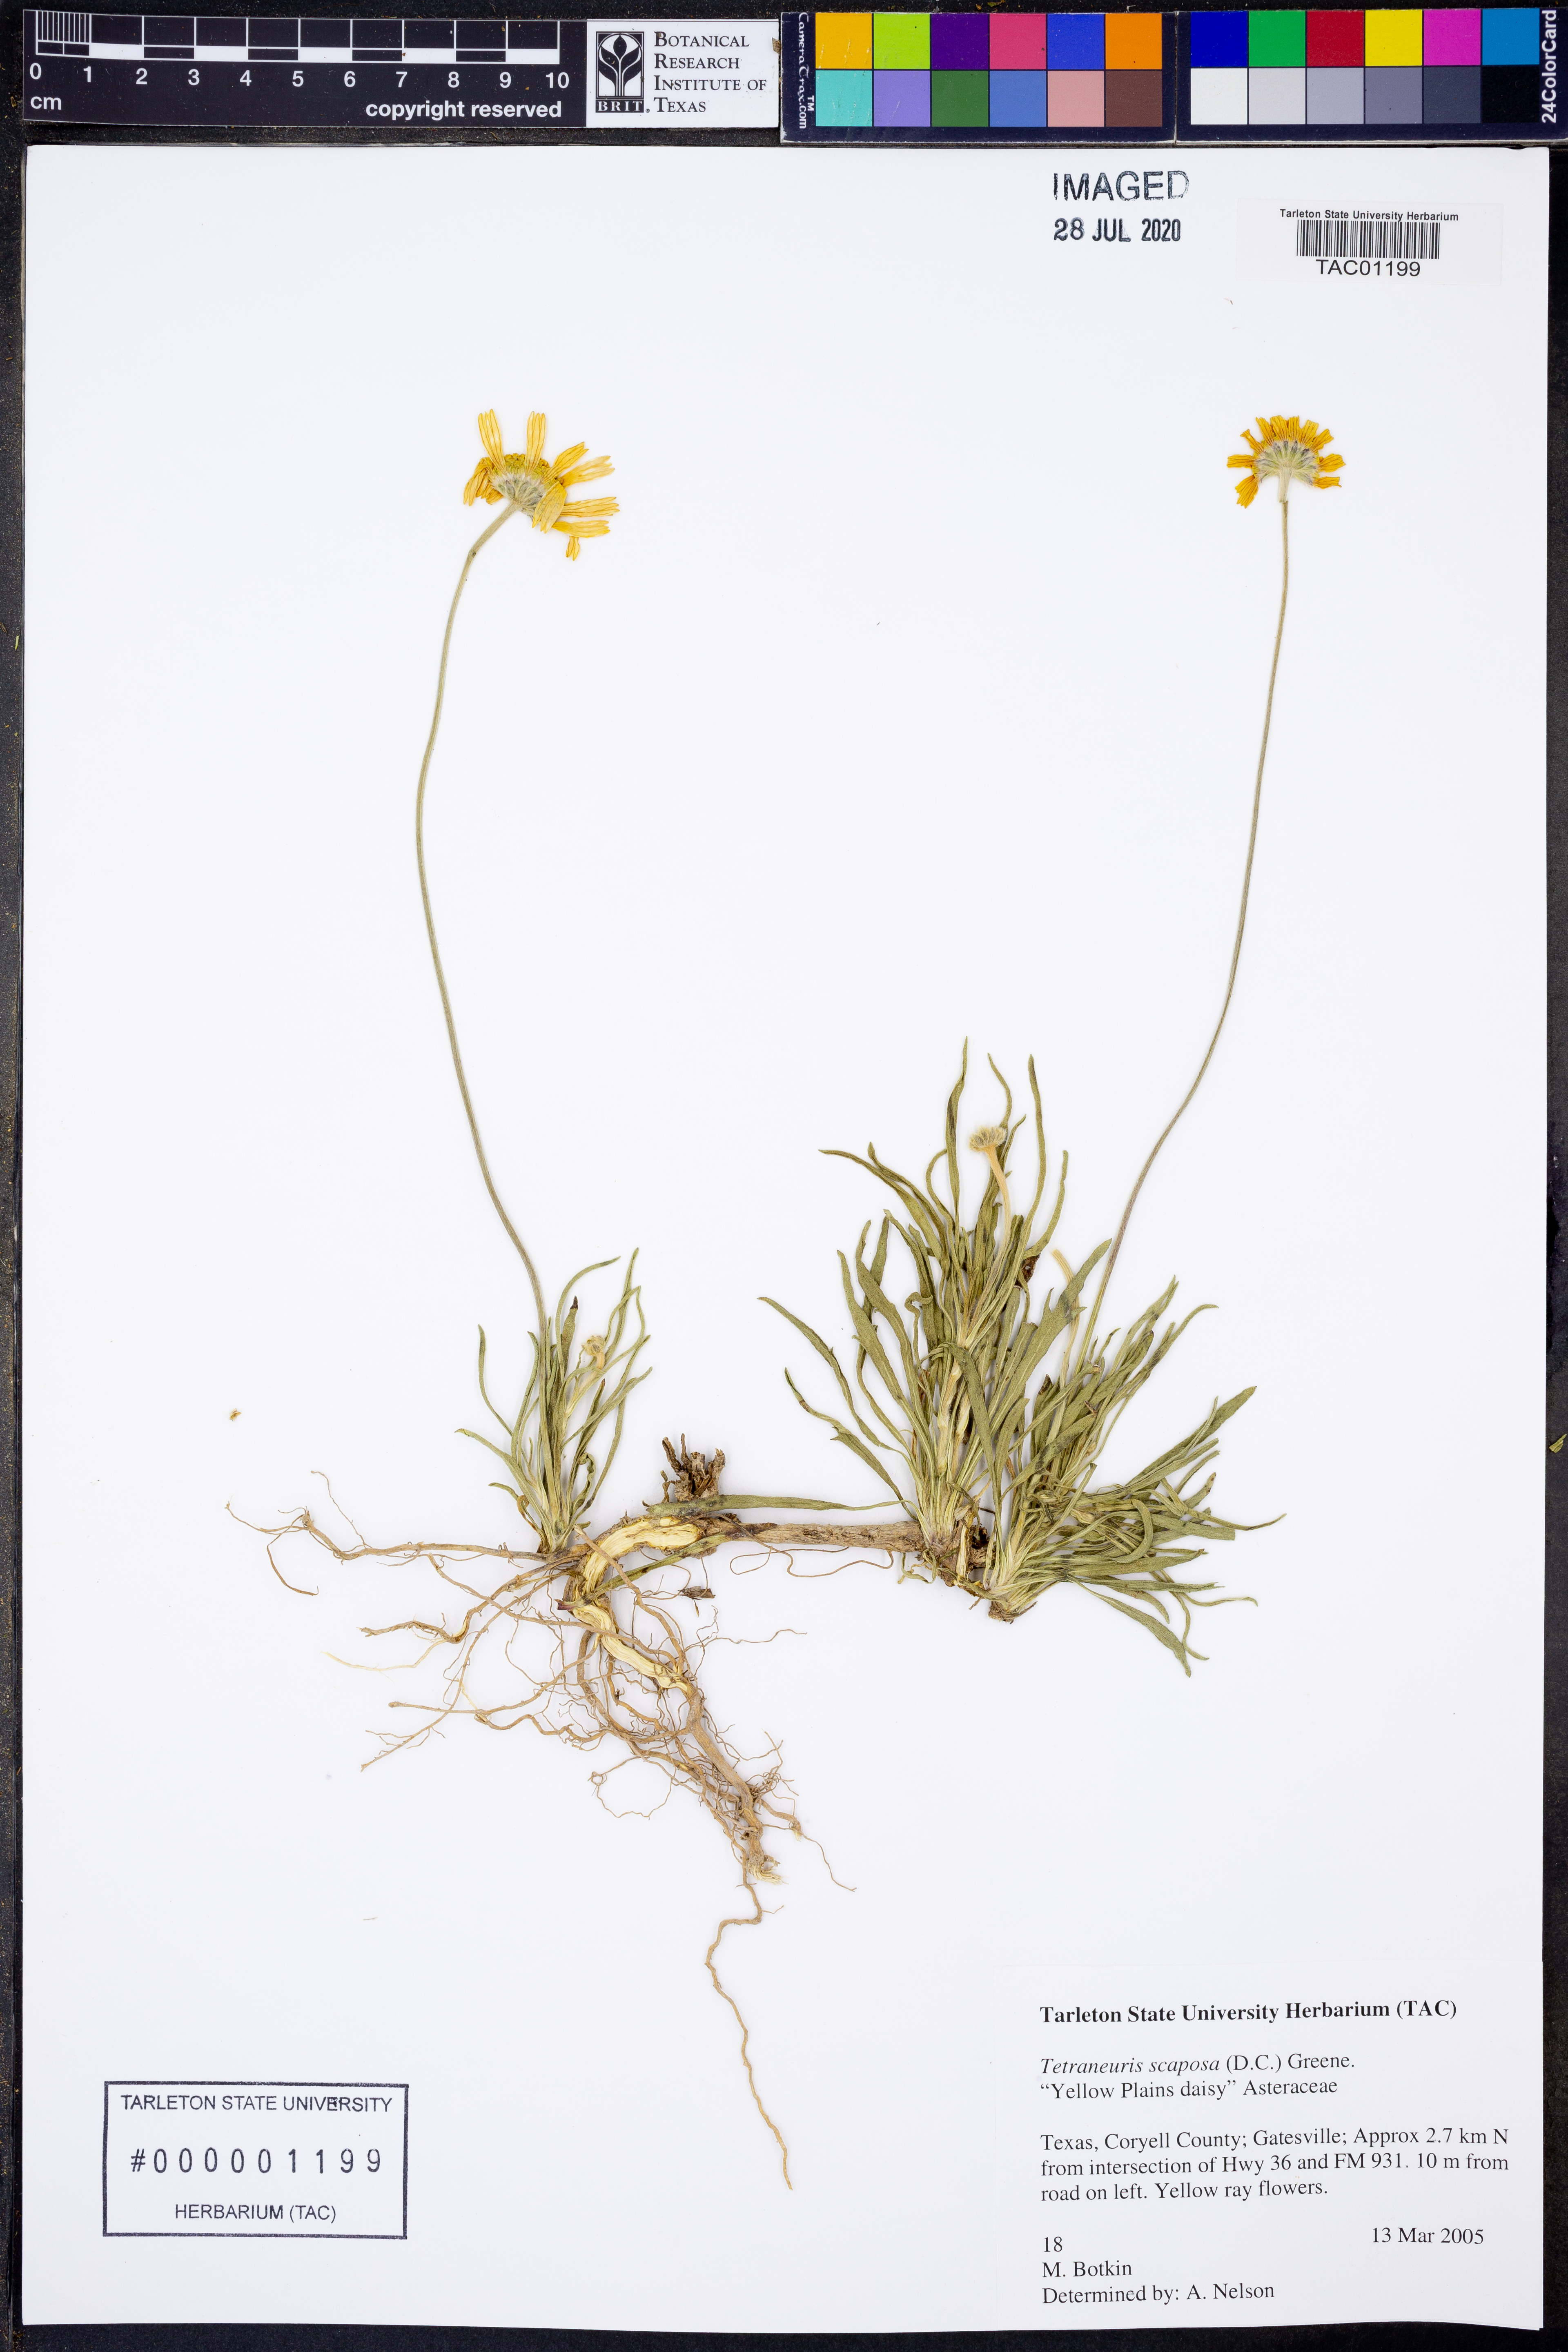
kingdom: Plantae
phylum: Tracheophyta
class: Magnoliopsida
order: Asterales
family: Asteraceae
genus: Tetraneuris
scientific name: Tetraneuris scaposa
